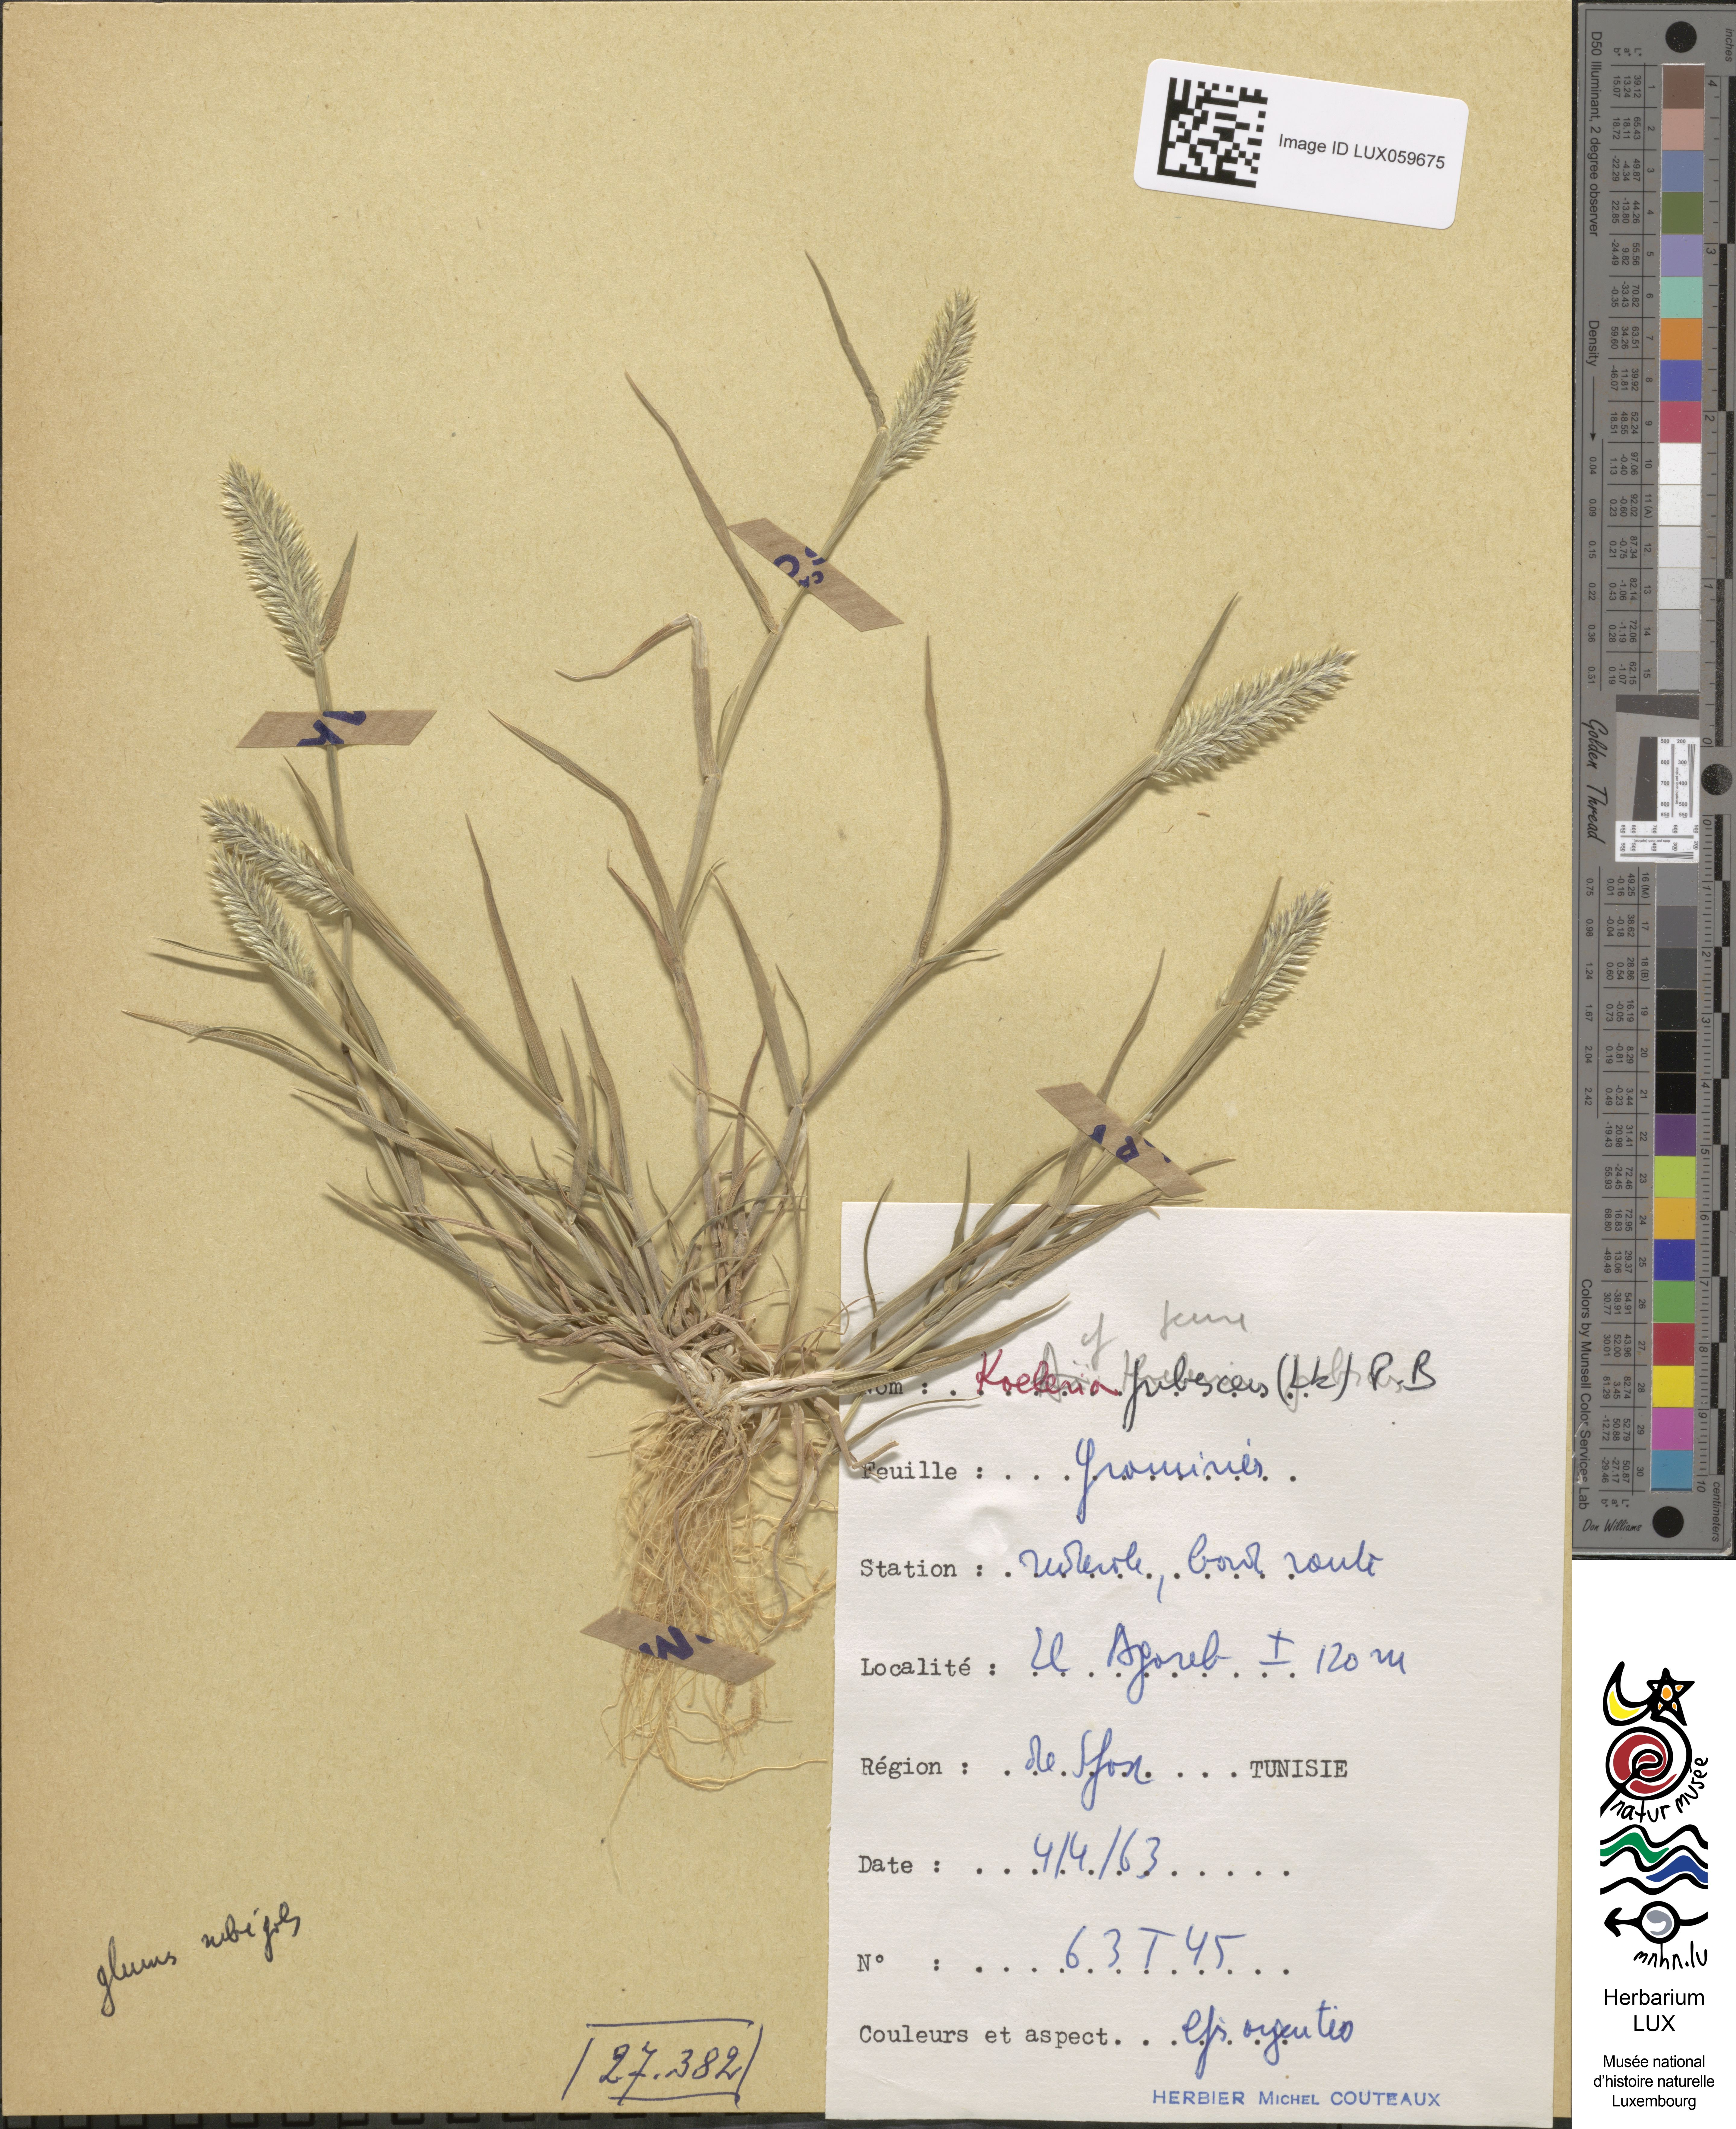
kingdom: Plantae
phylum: Tracheophyta
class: Liliopsida
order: Poales
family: Poaceae
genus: Rostraria
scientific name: Rostraria litorea
